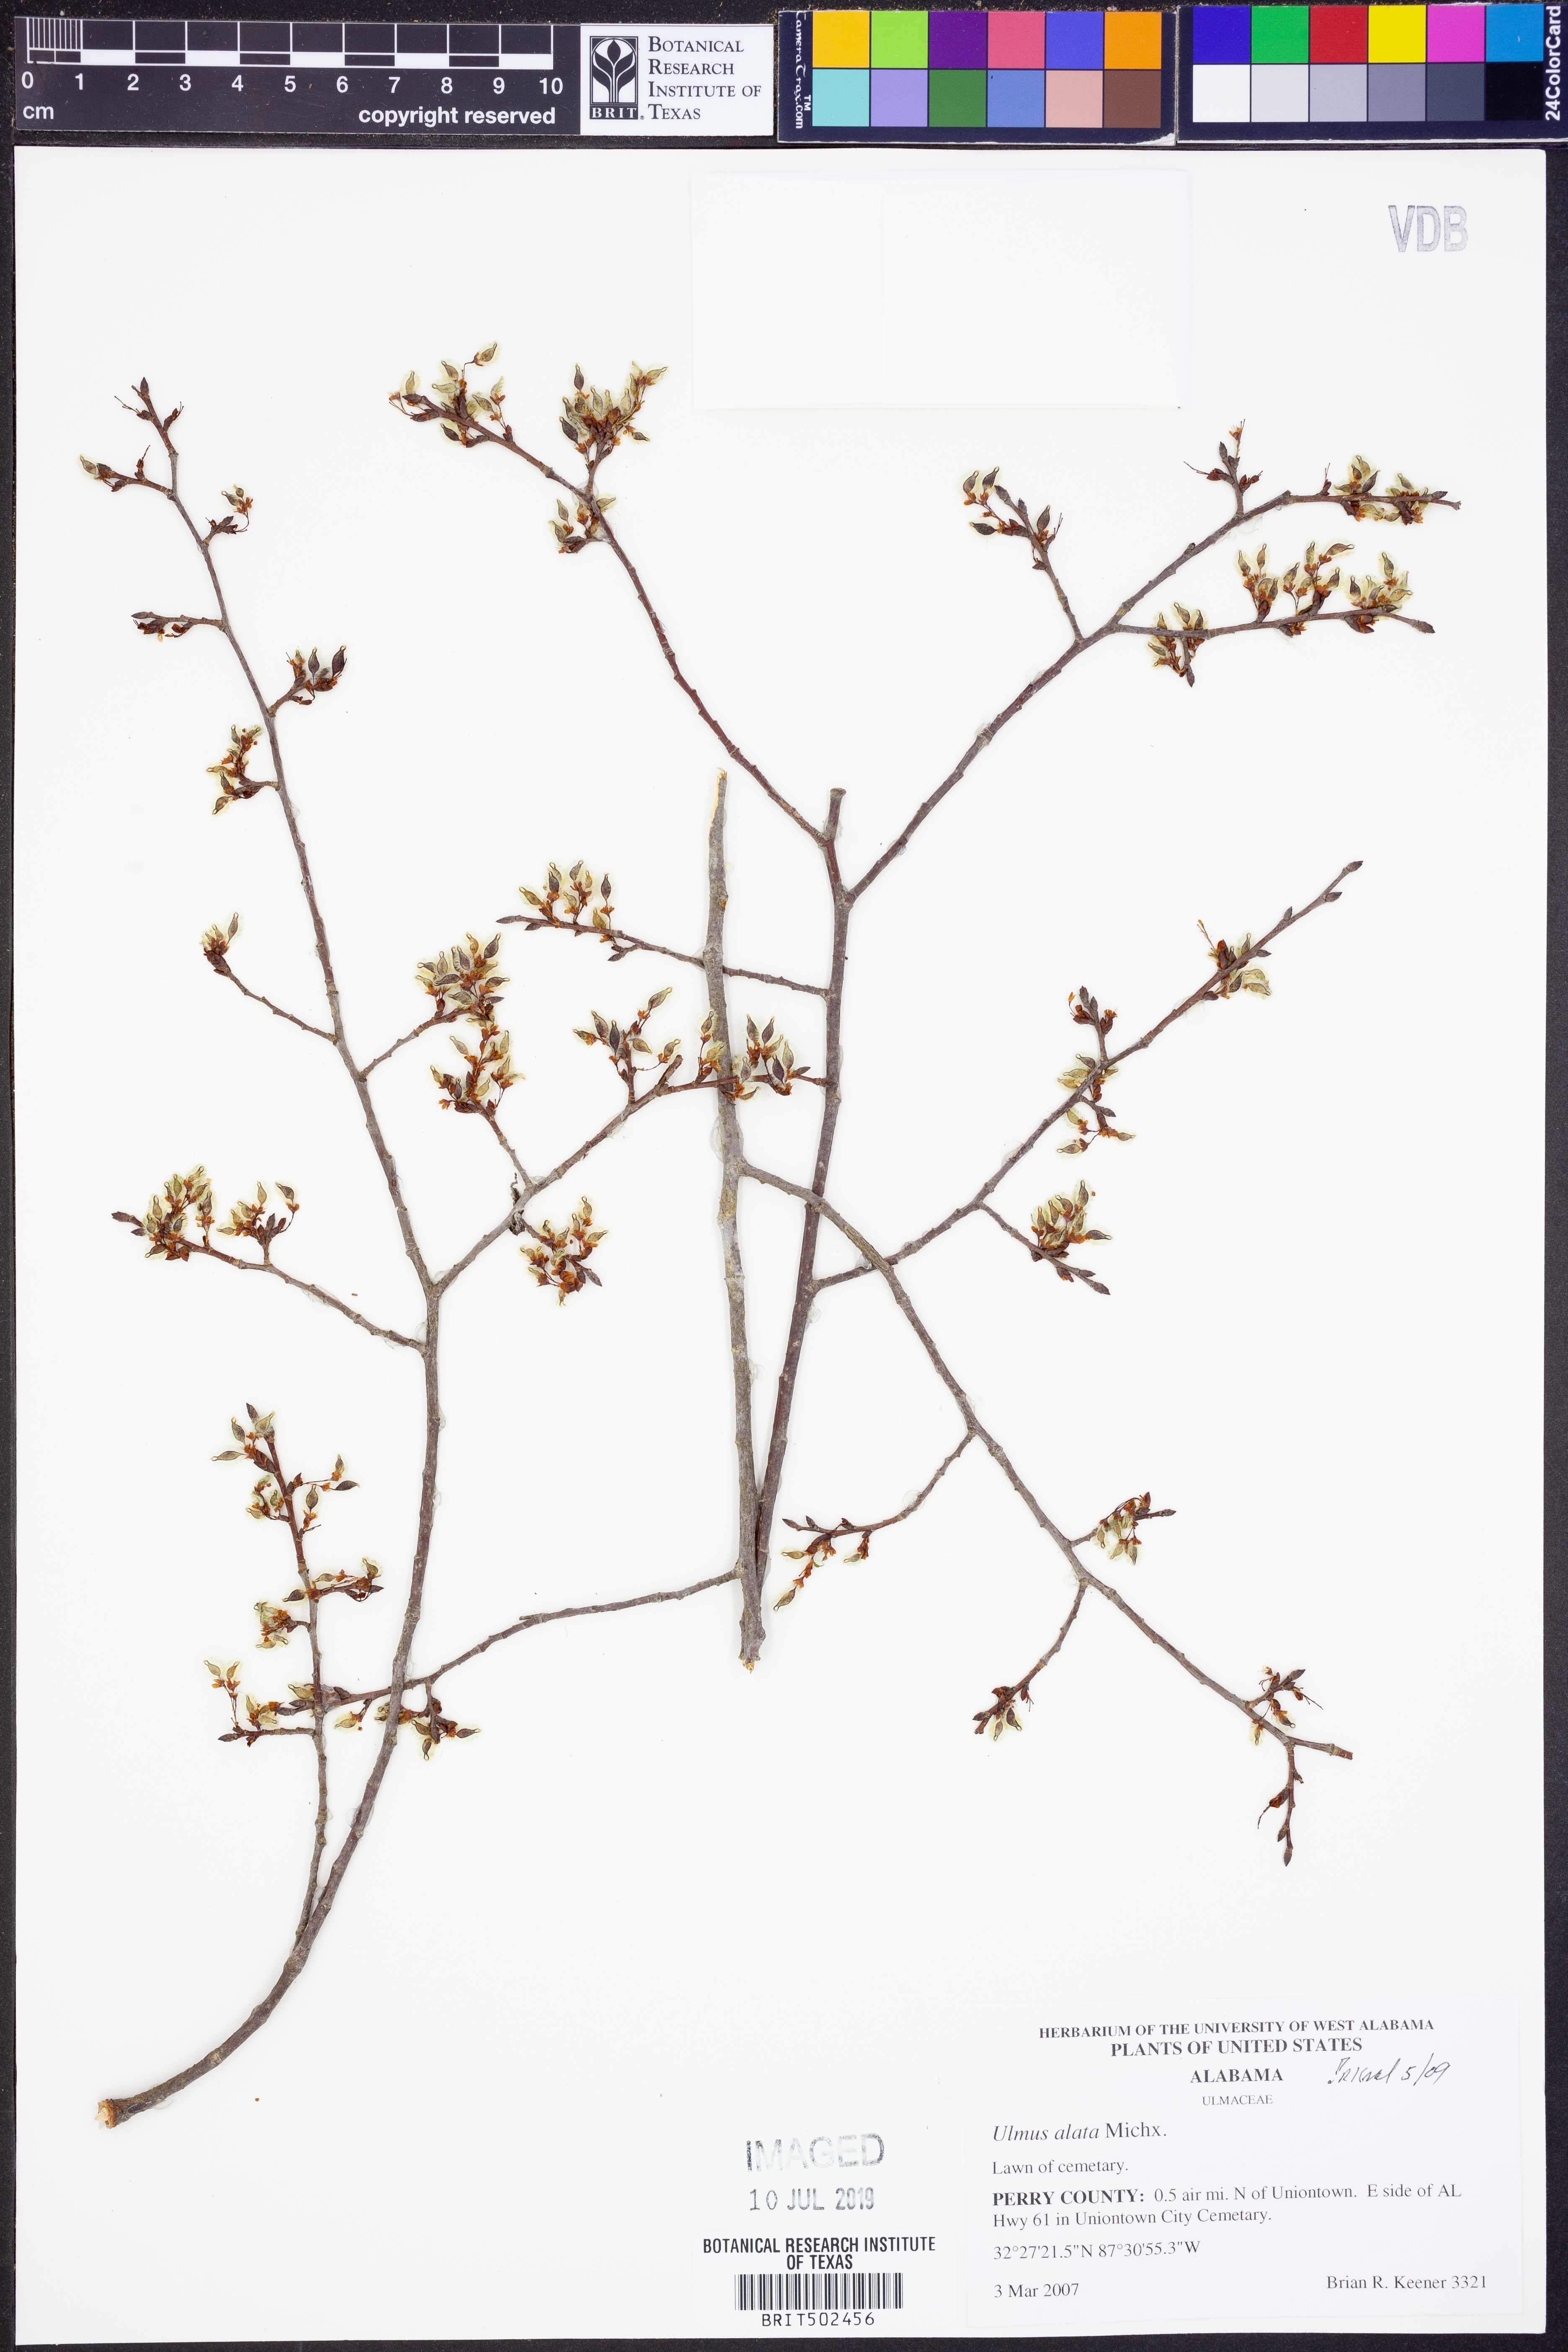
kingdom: Plantae
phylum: Tracheophyta
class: Magnoliopsida
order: Rosales
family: Ulmaceae
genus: Ulmus
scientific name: Ulmus alata
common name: Winged elm
